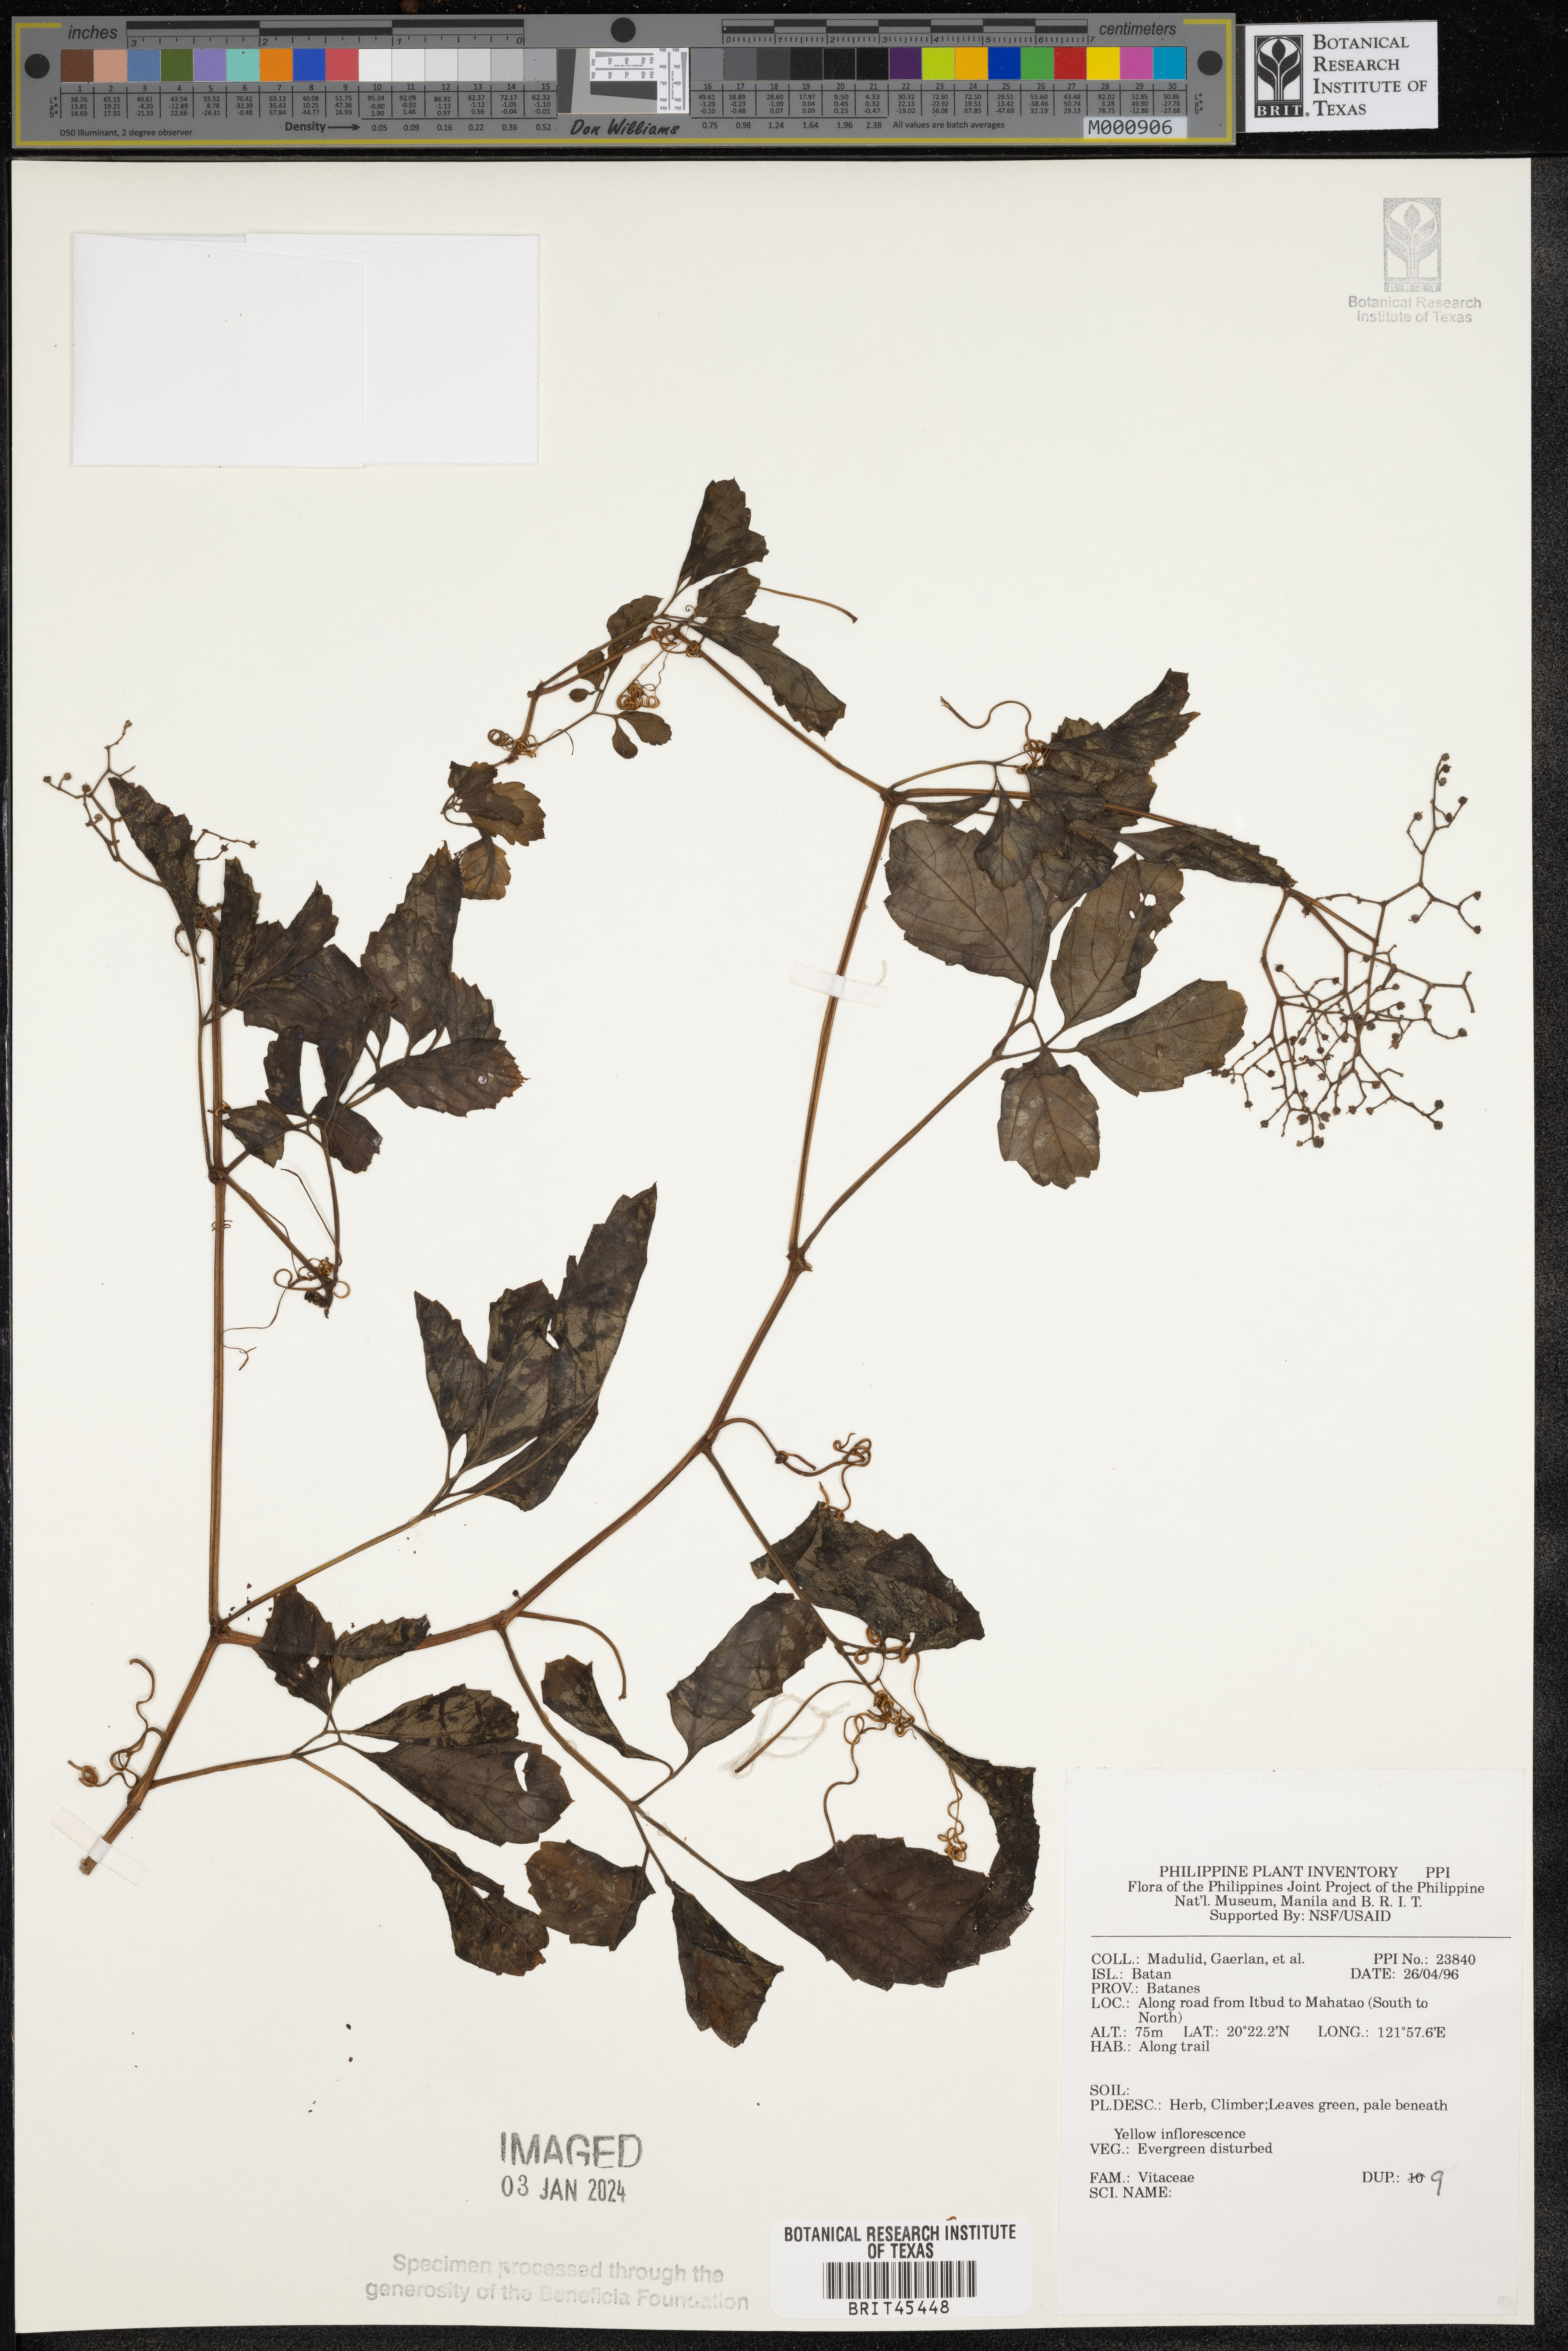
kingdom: Plantae
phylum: Tracheophyta
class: Magnoliopsida
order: Vitales
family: Vitaceae
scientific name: Vitaceae
